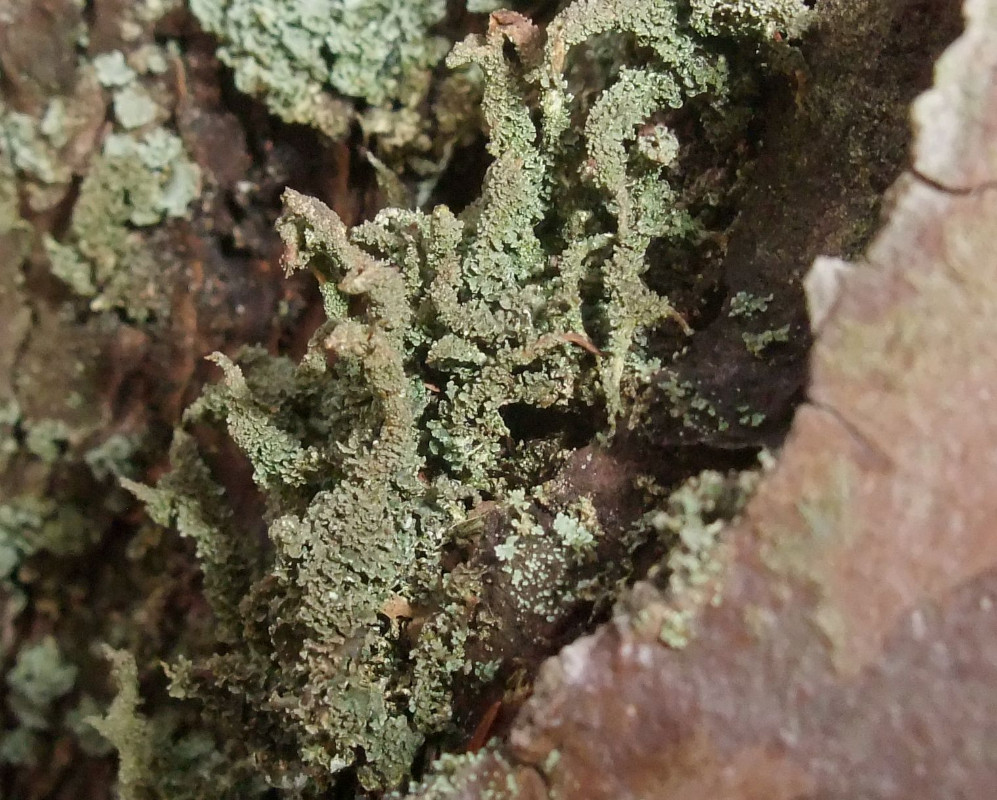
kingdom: Fungi
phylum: Ascomycota
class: Lecanoromycetes
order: Lecanorales
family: Cladoniaceae
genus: Cladonia
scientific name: Cladonia glauca
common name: grågrøn bægerlav
